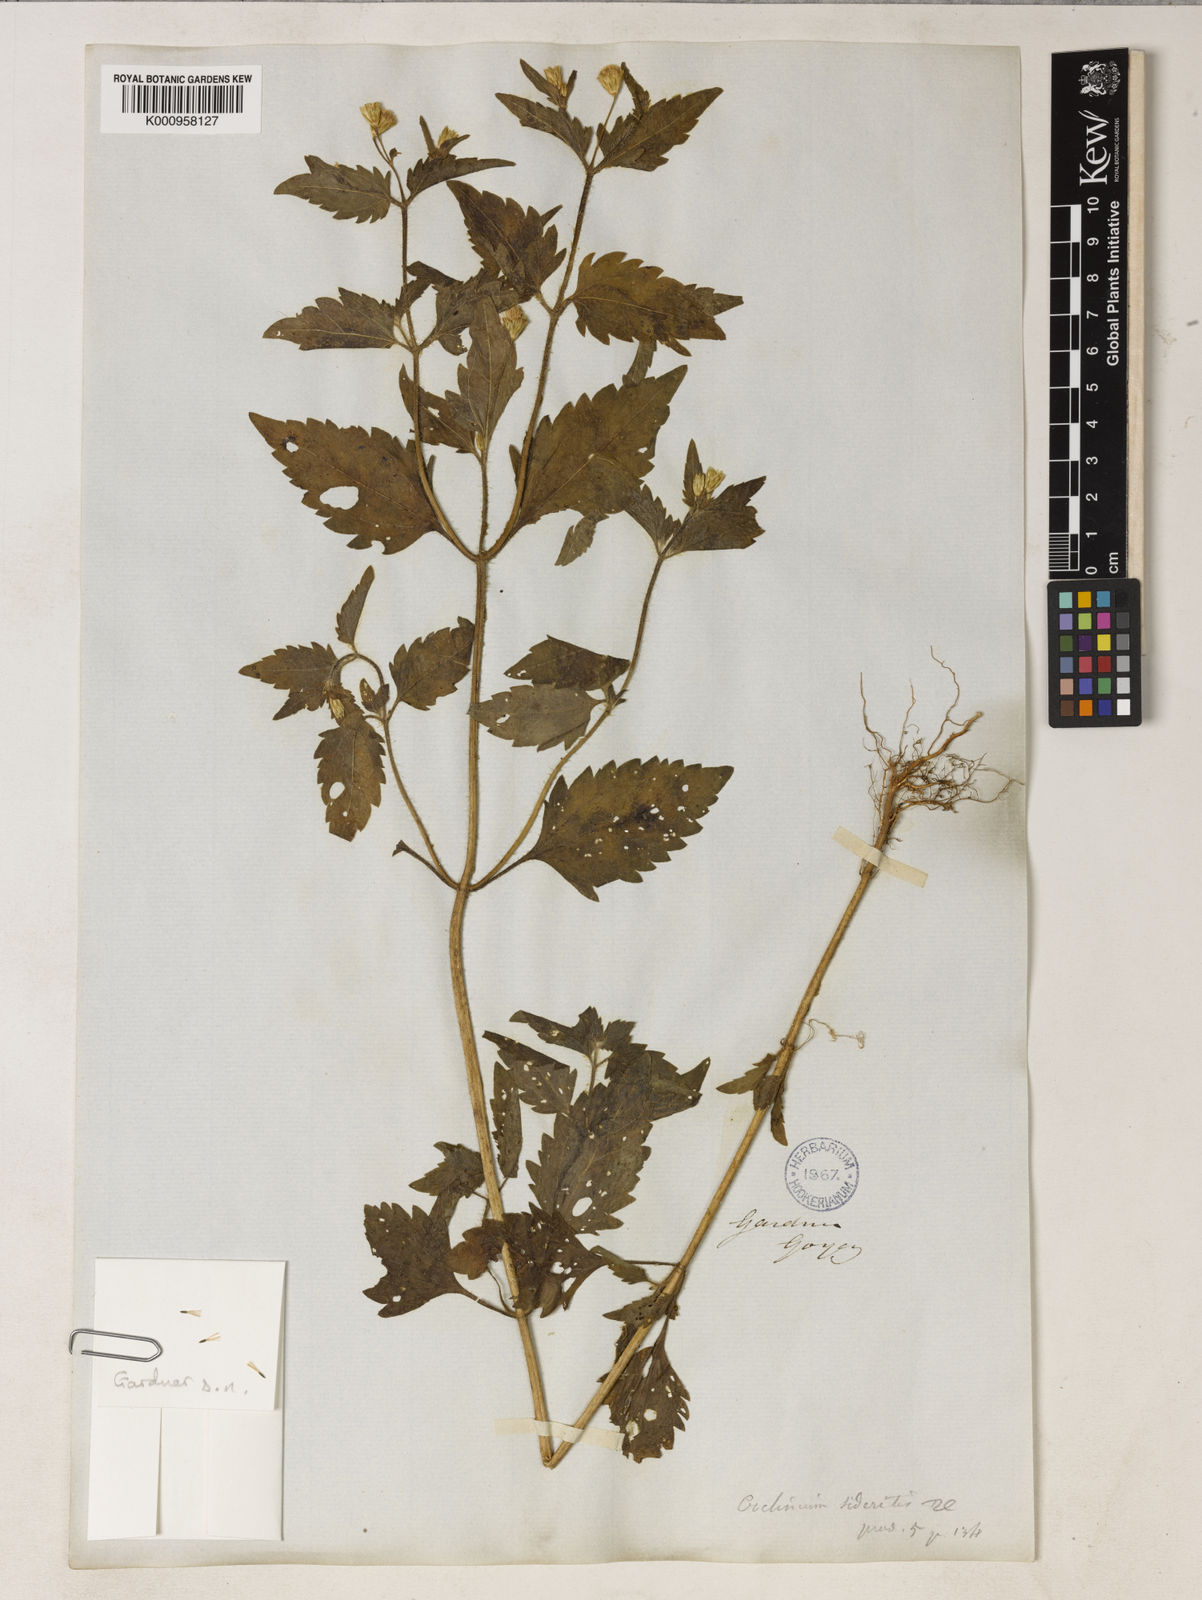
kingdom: Plantae
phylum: Tracheophyta
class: Magnoliopsida
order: Asterales
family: Asteraceae
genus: Praxelis
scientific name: Praxelis diffusa
